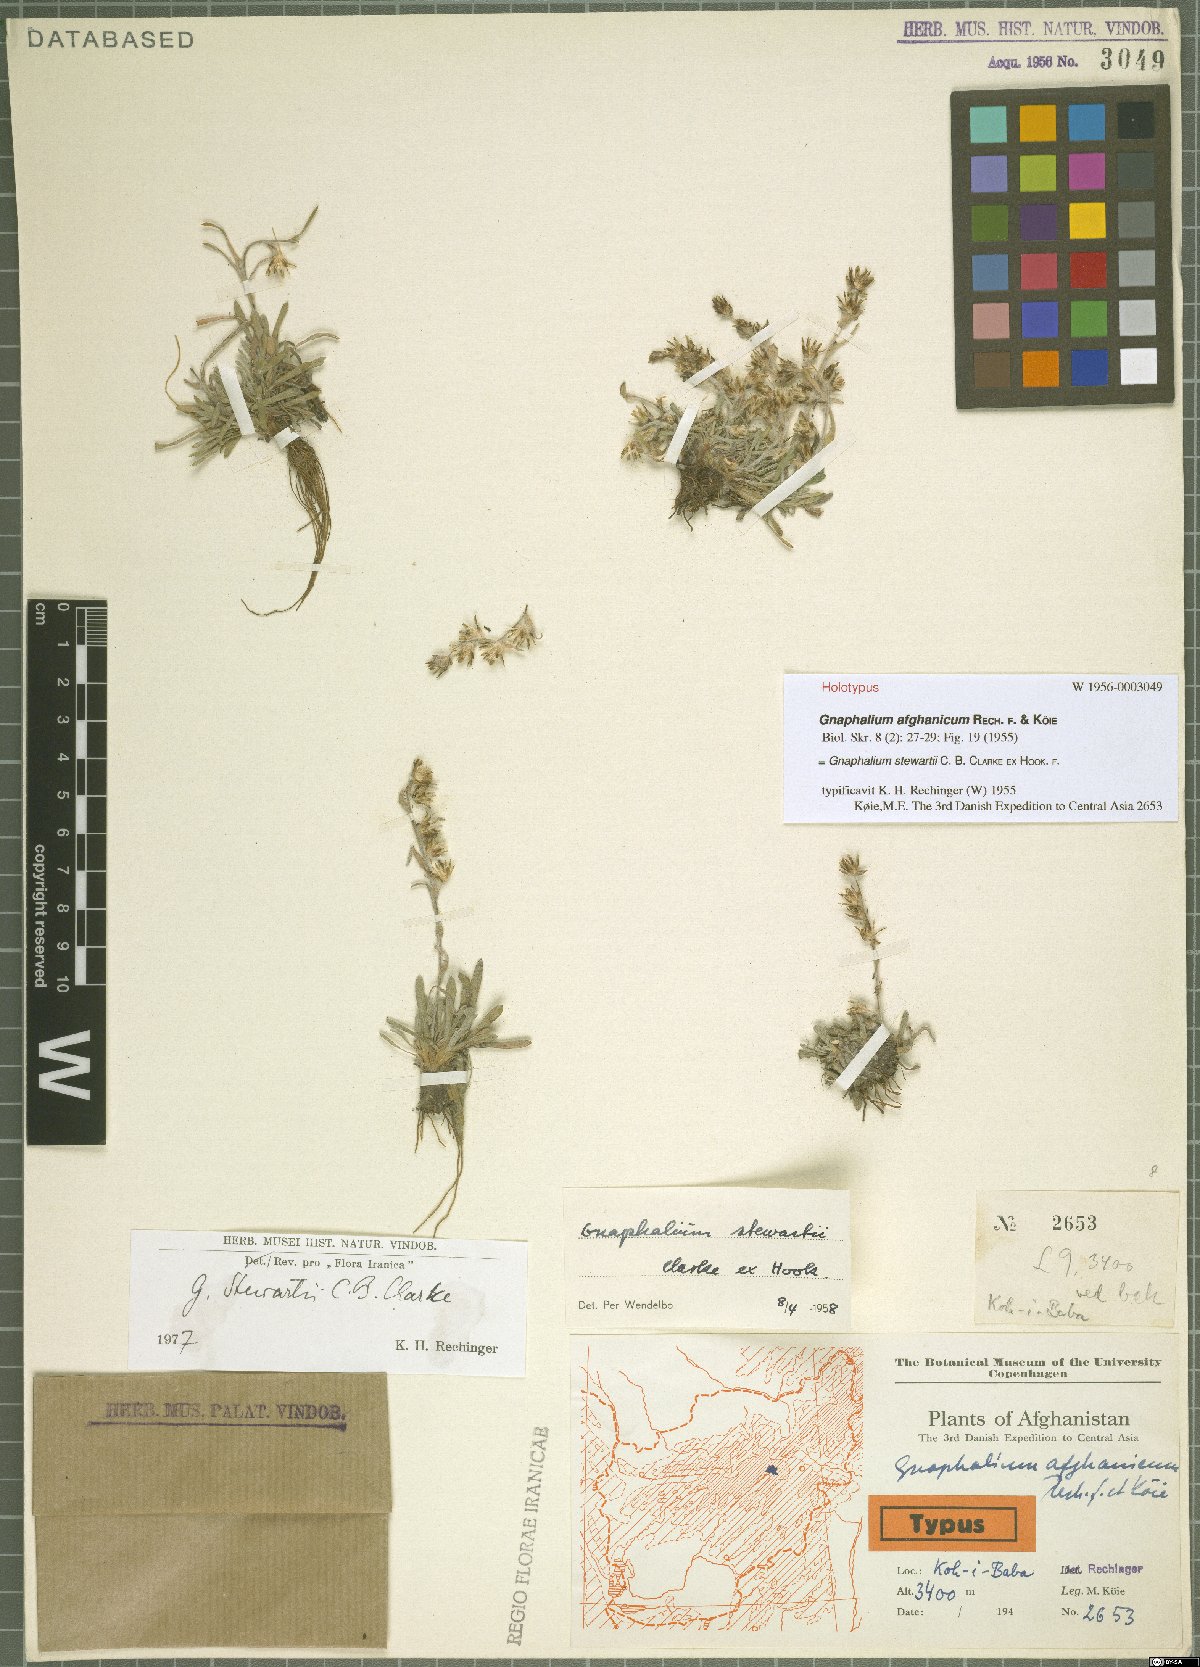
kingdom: Plantae
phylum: Tracheophyta
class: Magnoliopsida
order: Asterales
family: Asteraceae
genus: Gnaphalium
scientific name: Gnaphalium stewartii
